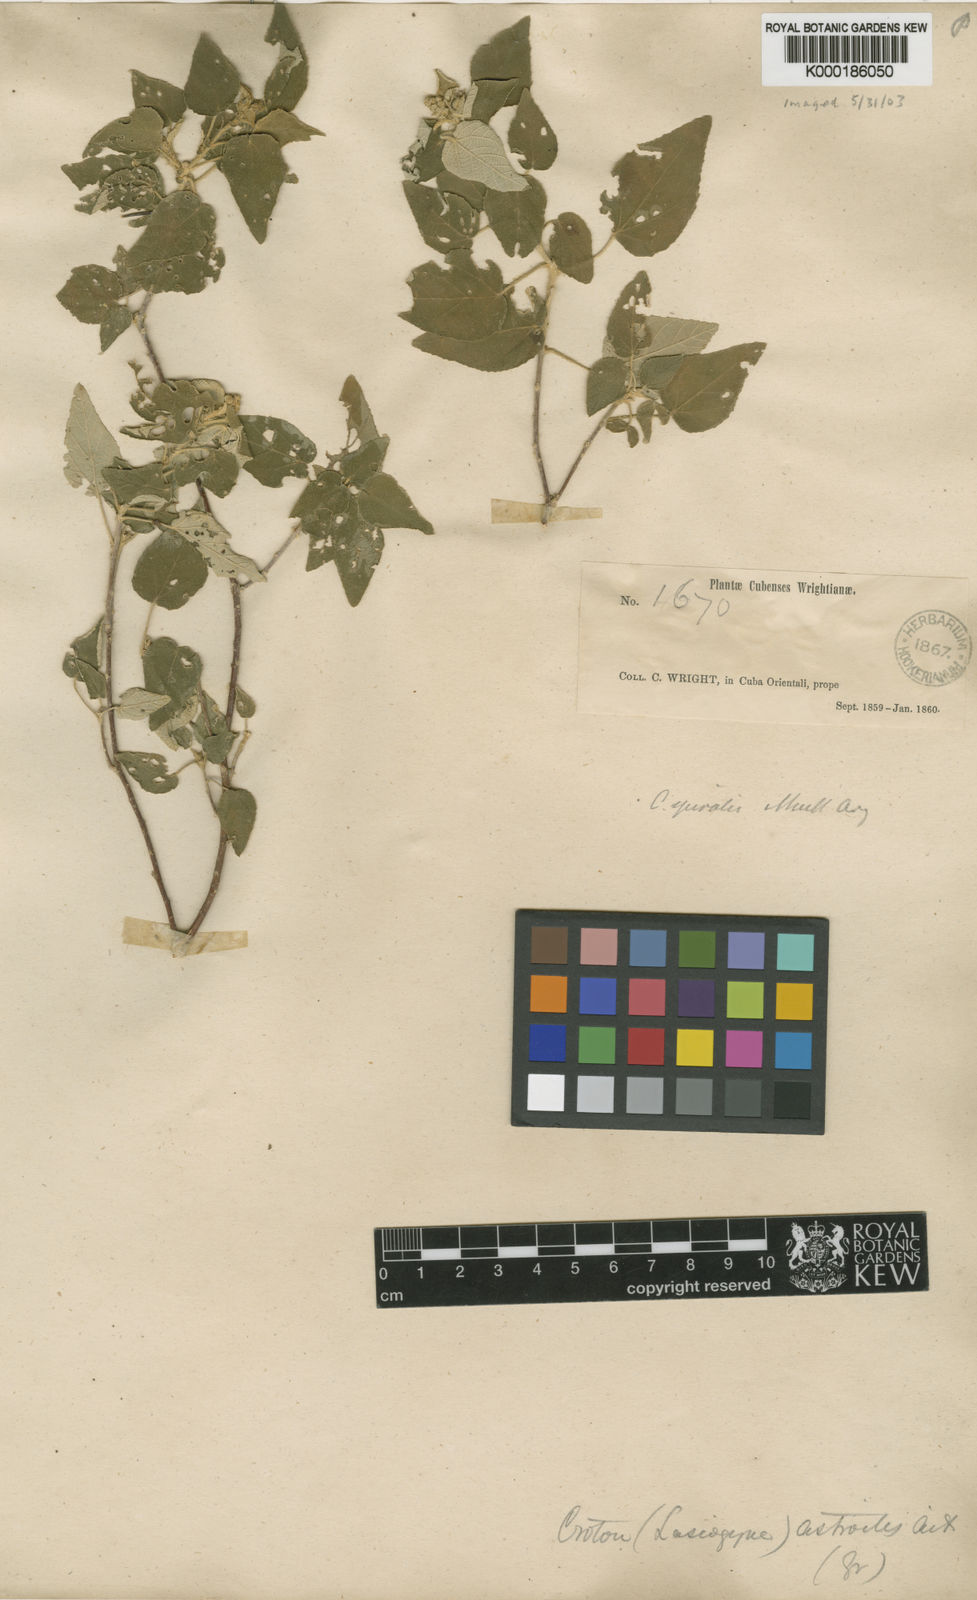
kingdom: Plantae
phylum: Tracheophyta
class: Magnoliopsida
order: Malpighiales
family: Euphorbiaceae
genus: Croton
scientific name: Croton
